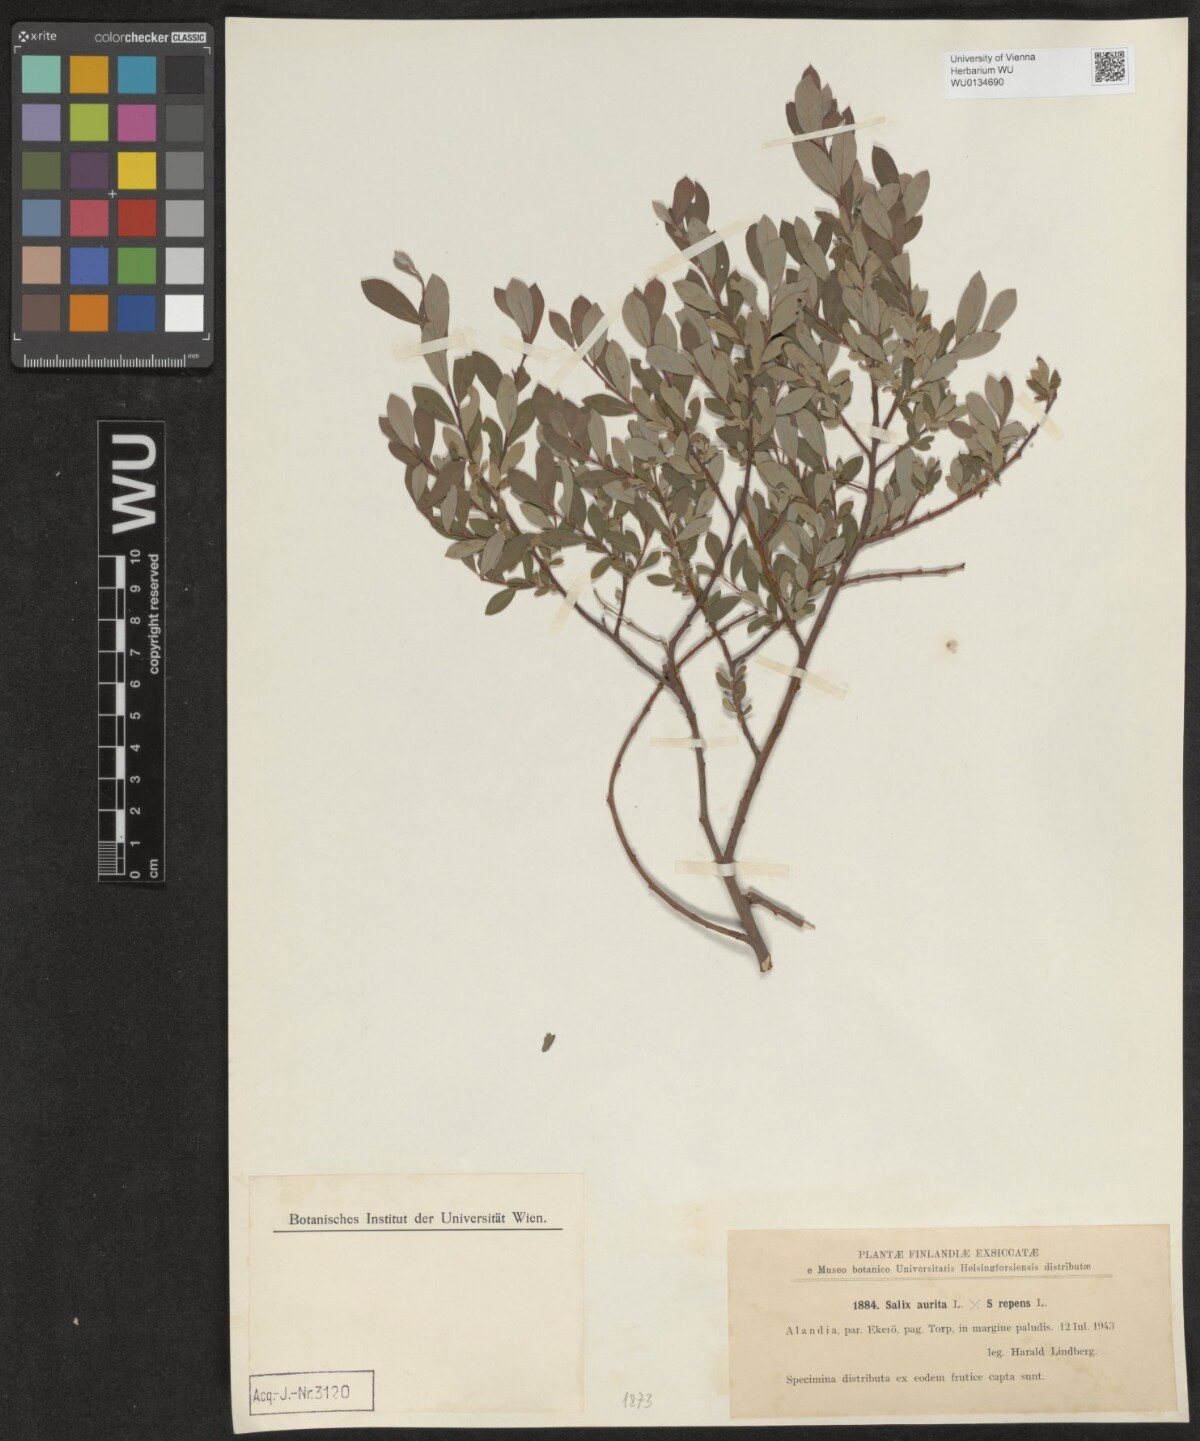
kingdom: Plantae
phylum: Tracheophyta
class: Magnoliopsida
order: Malpighiales
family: Salicaceae
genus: Salix
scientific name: Salix
